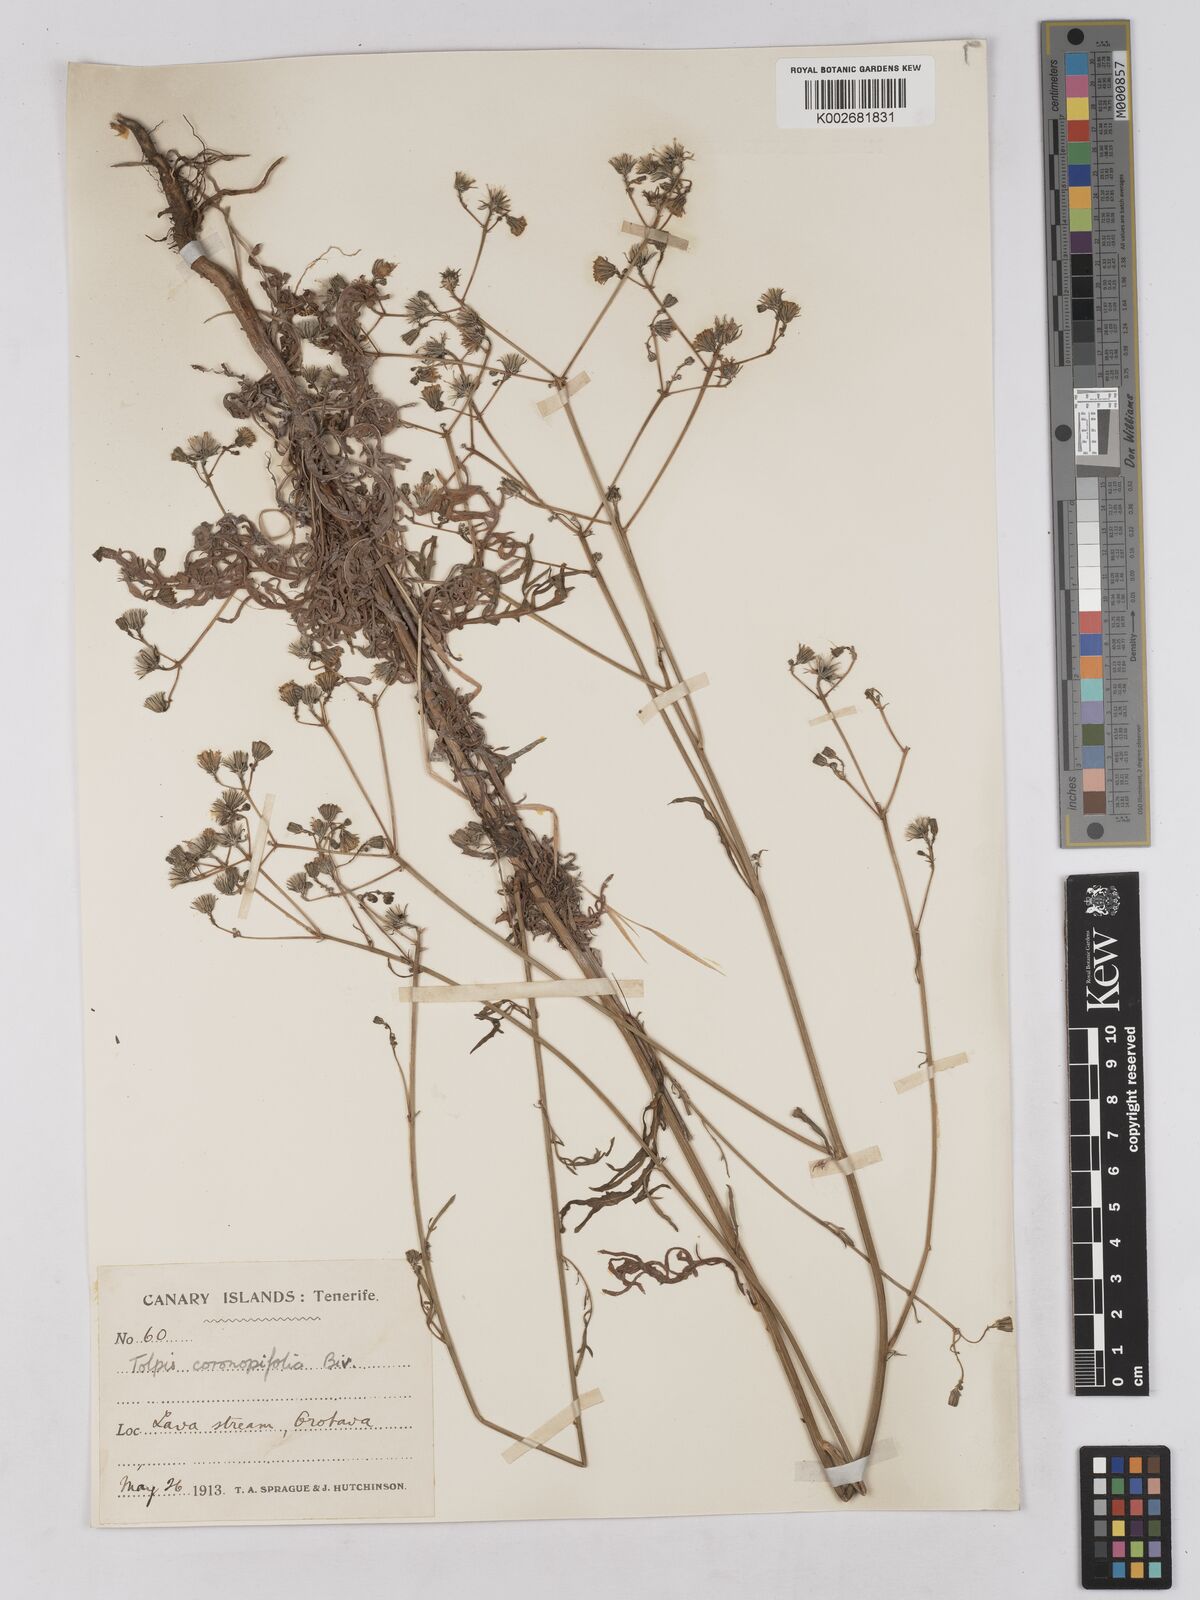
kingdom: Plantae
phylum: Tracheophyta
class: Magnoliopsida
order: Asterales
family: Asteraceae
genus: Tolpis
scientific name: Tolpis coronopifolia
